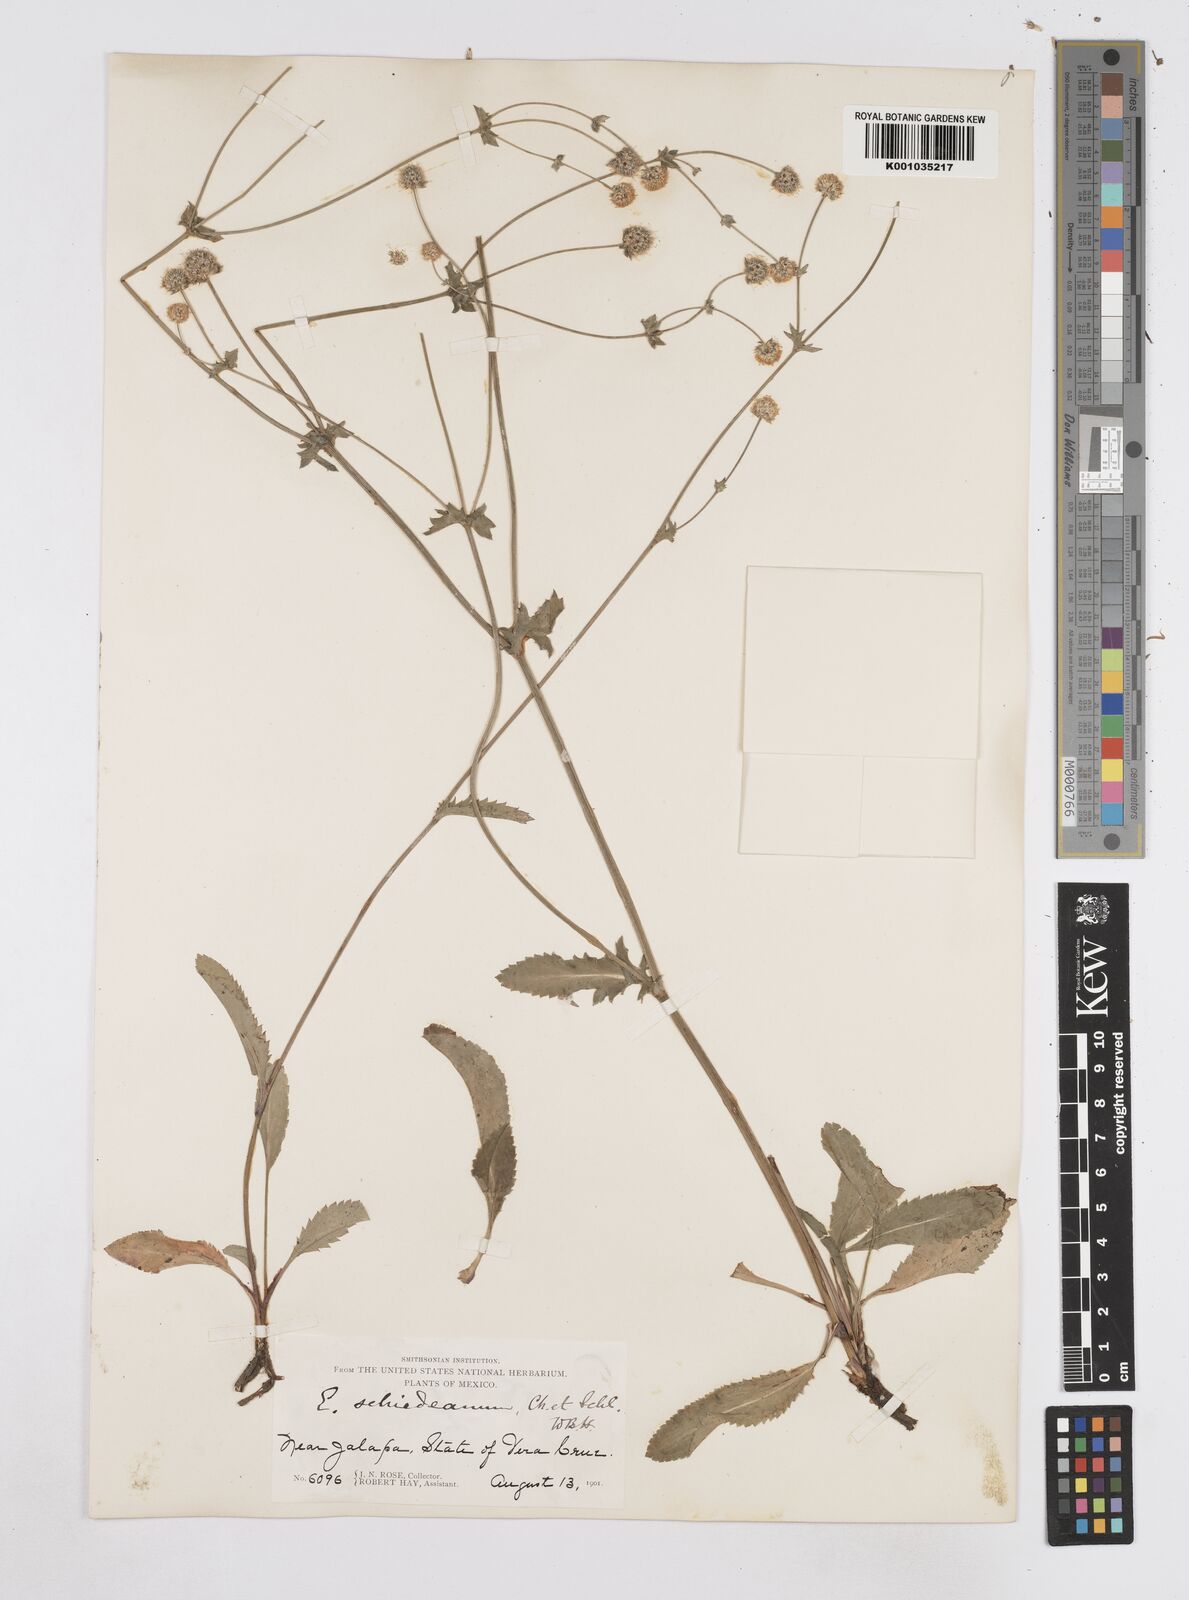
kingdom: Plantae
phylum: Tracheophyta
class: Magnoliopsida
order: Apiales
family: Apiaceae
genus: Eryngium
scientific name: Eryngium serratum
